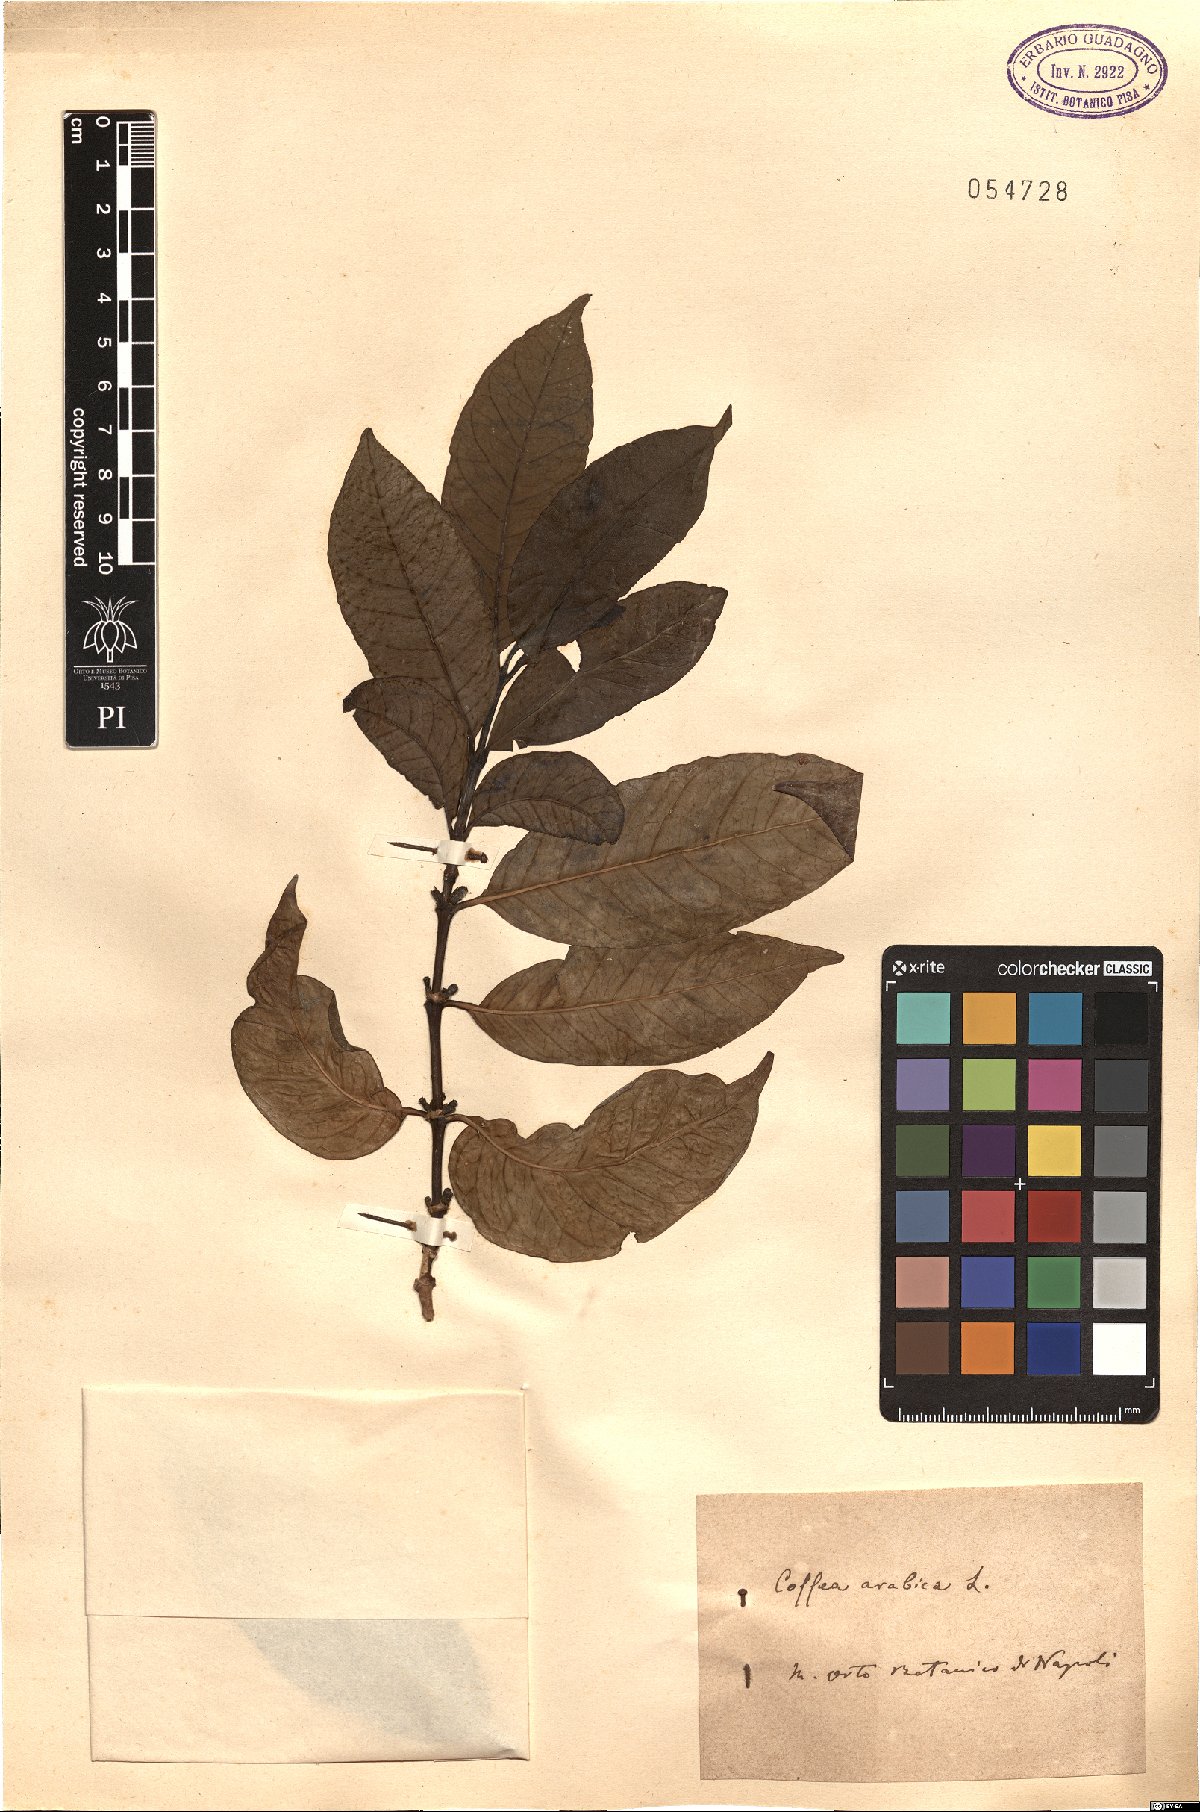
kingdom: Plantae
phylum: Tracheophyta
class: Magnoliopsida
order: Gentianales
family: Rubiaceae
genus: Coffea
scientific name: Coffea arabica
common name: Coffee
